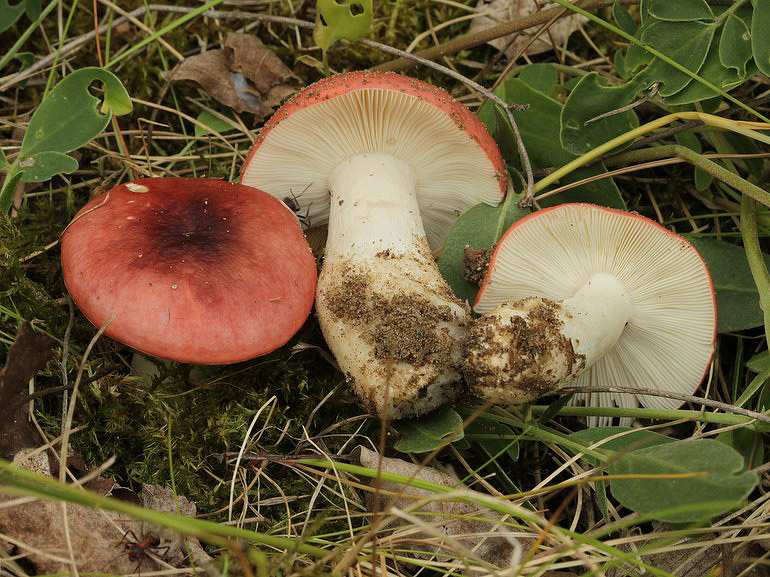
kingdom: Fungi
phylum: Basidiomycota
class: Agaricomycetes
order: Russulales
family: Russulaceae
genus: Russula
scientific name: Russula depallens
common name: falmende skørhat
